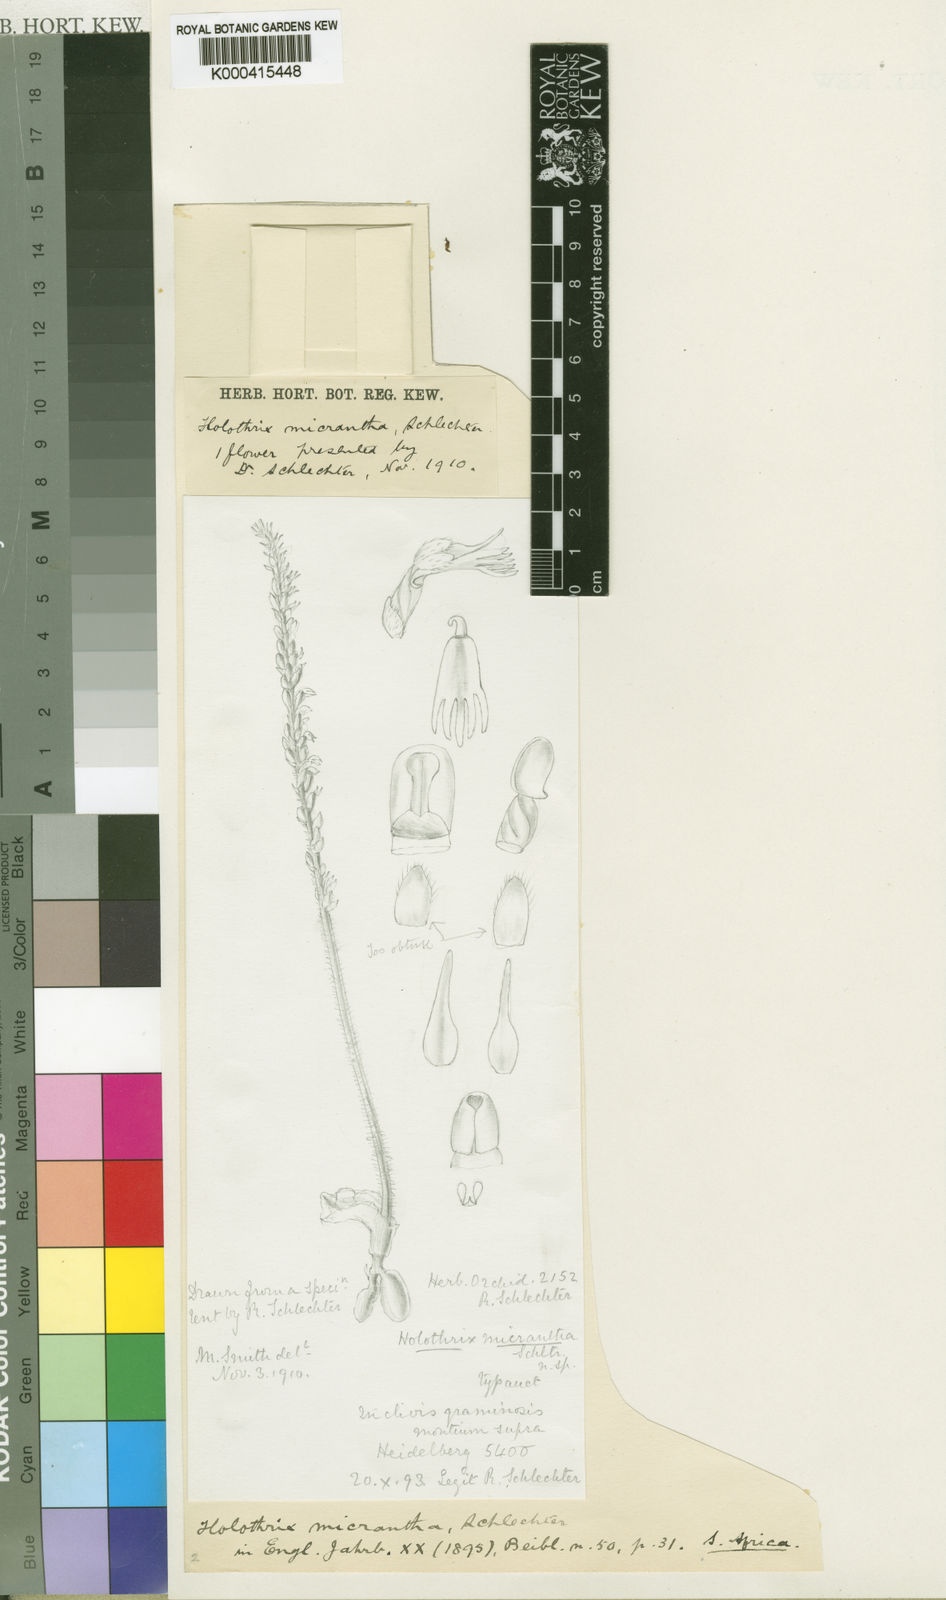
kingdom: Plantae
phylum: Tracheophyta
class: Liliopsida
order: Asparagales
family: Orchidaceae
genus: Holothrix
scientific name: Holothrix micrantha
